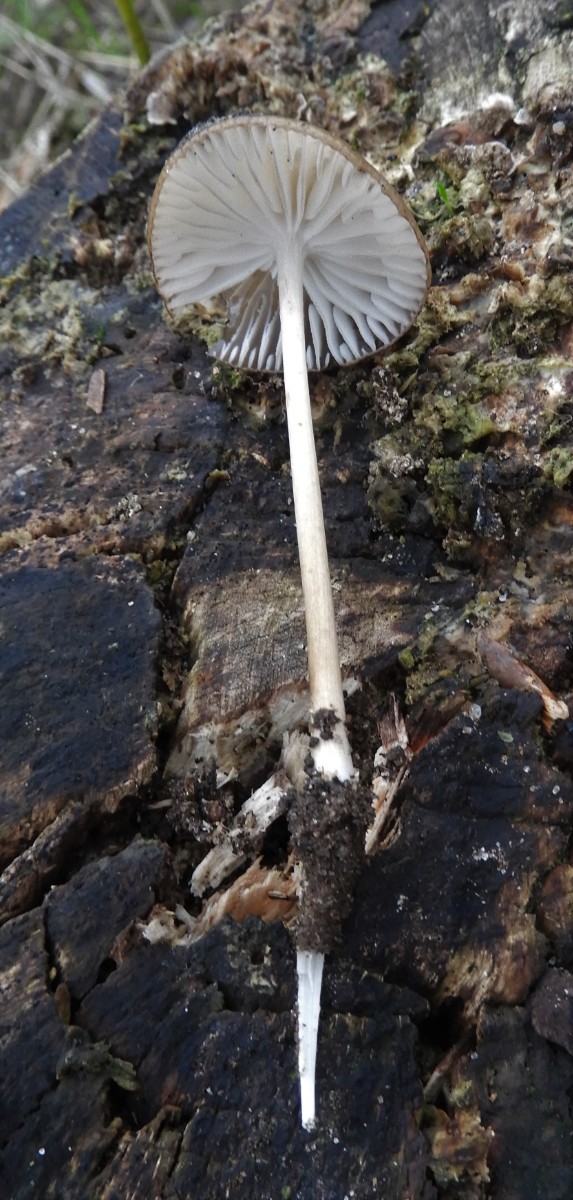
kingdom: Fungi
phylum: Basidiomycota
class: Agaricomycetes
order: Agaricales
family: Physalacriaceae
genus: Hymenopellis
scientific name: Hymenopellis radicata
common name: almindelig pælerodshat
